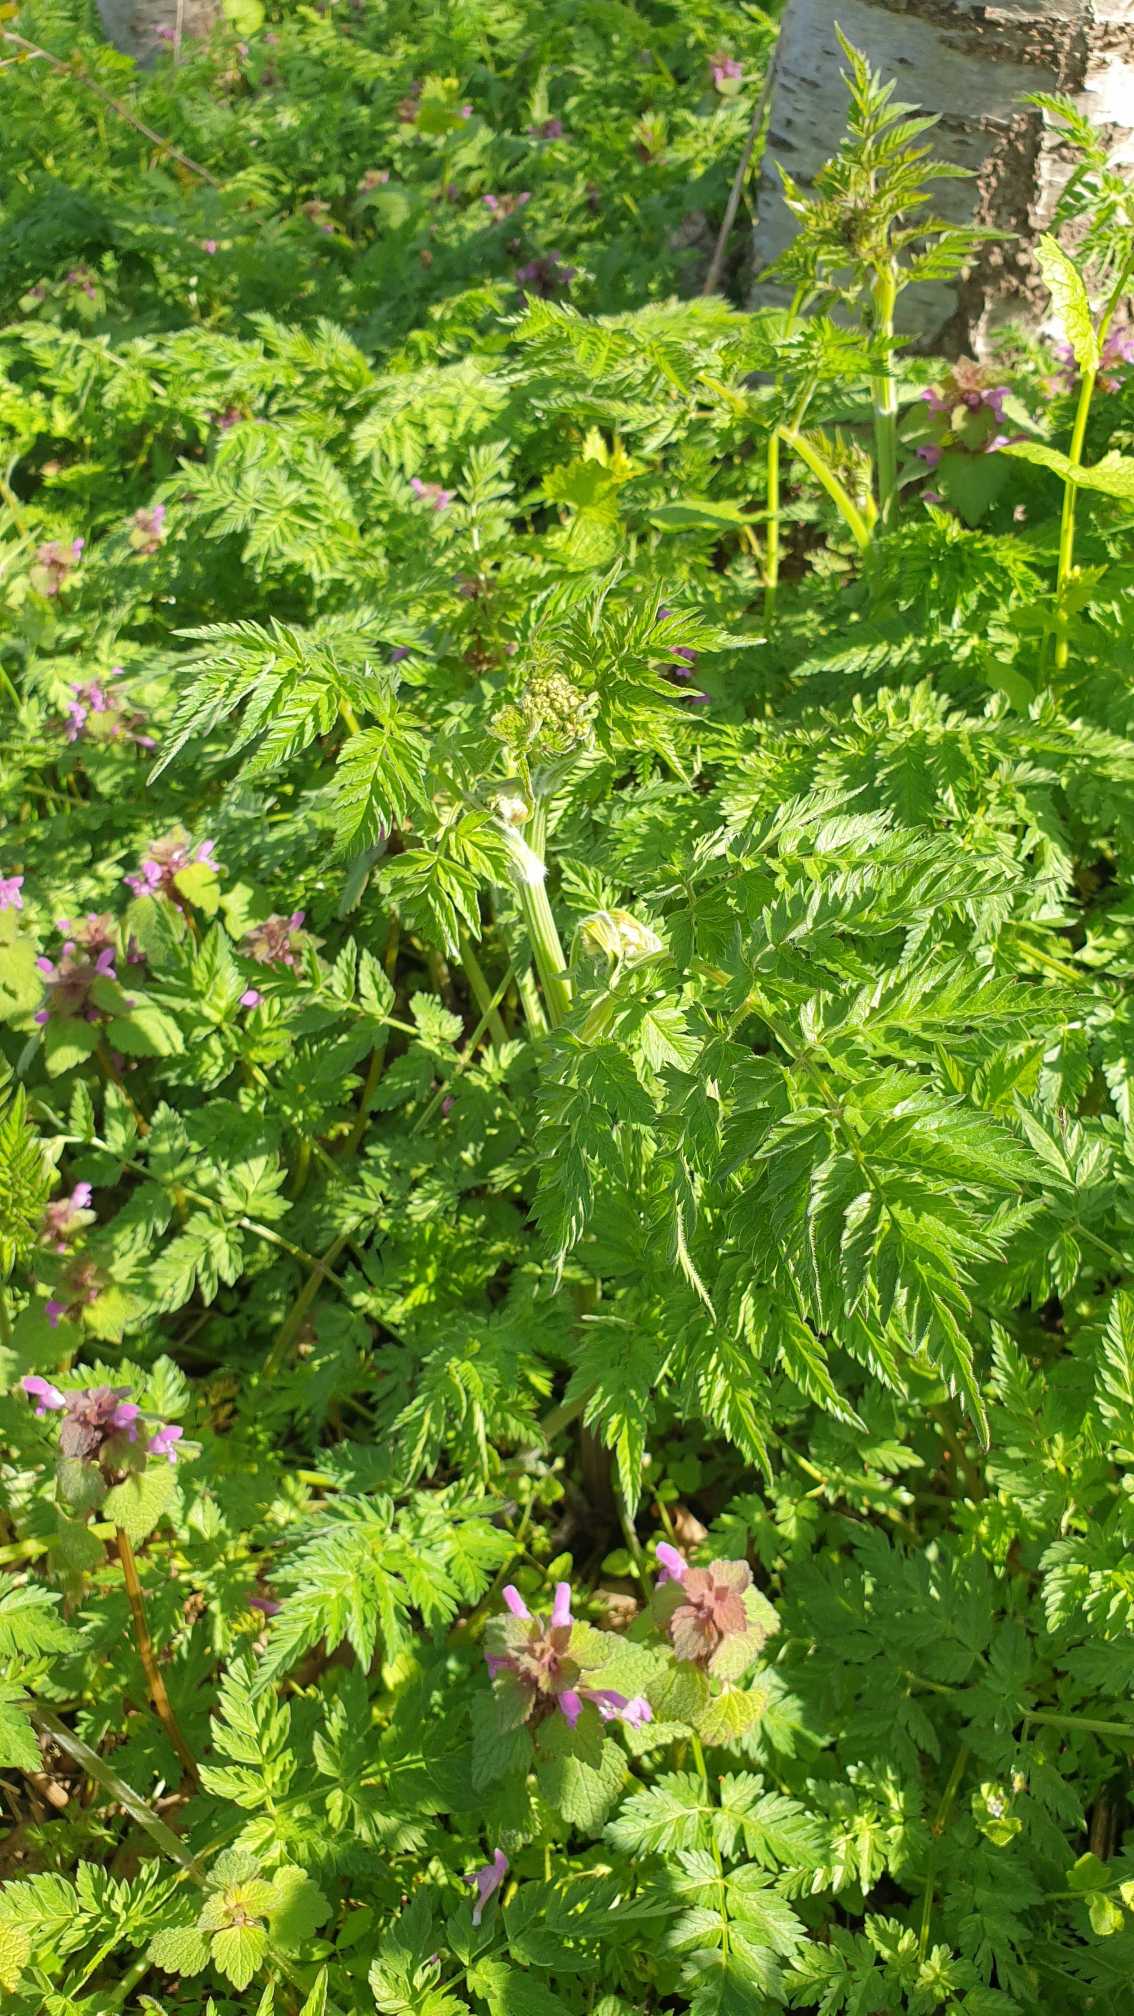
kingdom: Plantae
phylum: Tracheophyta
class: Magnoliopsida
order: Apiales
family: Apiaceae
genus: Anthriscus
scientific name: Anthriscus sylvestris
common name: Vild kørvel
